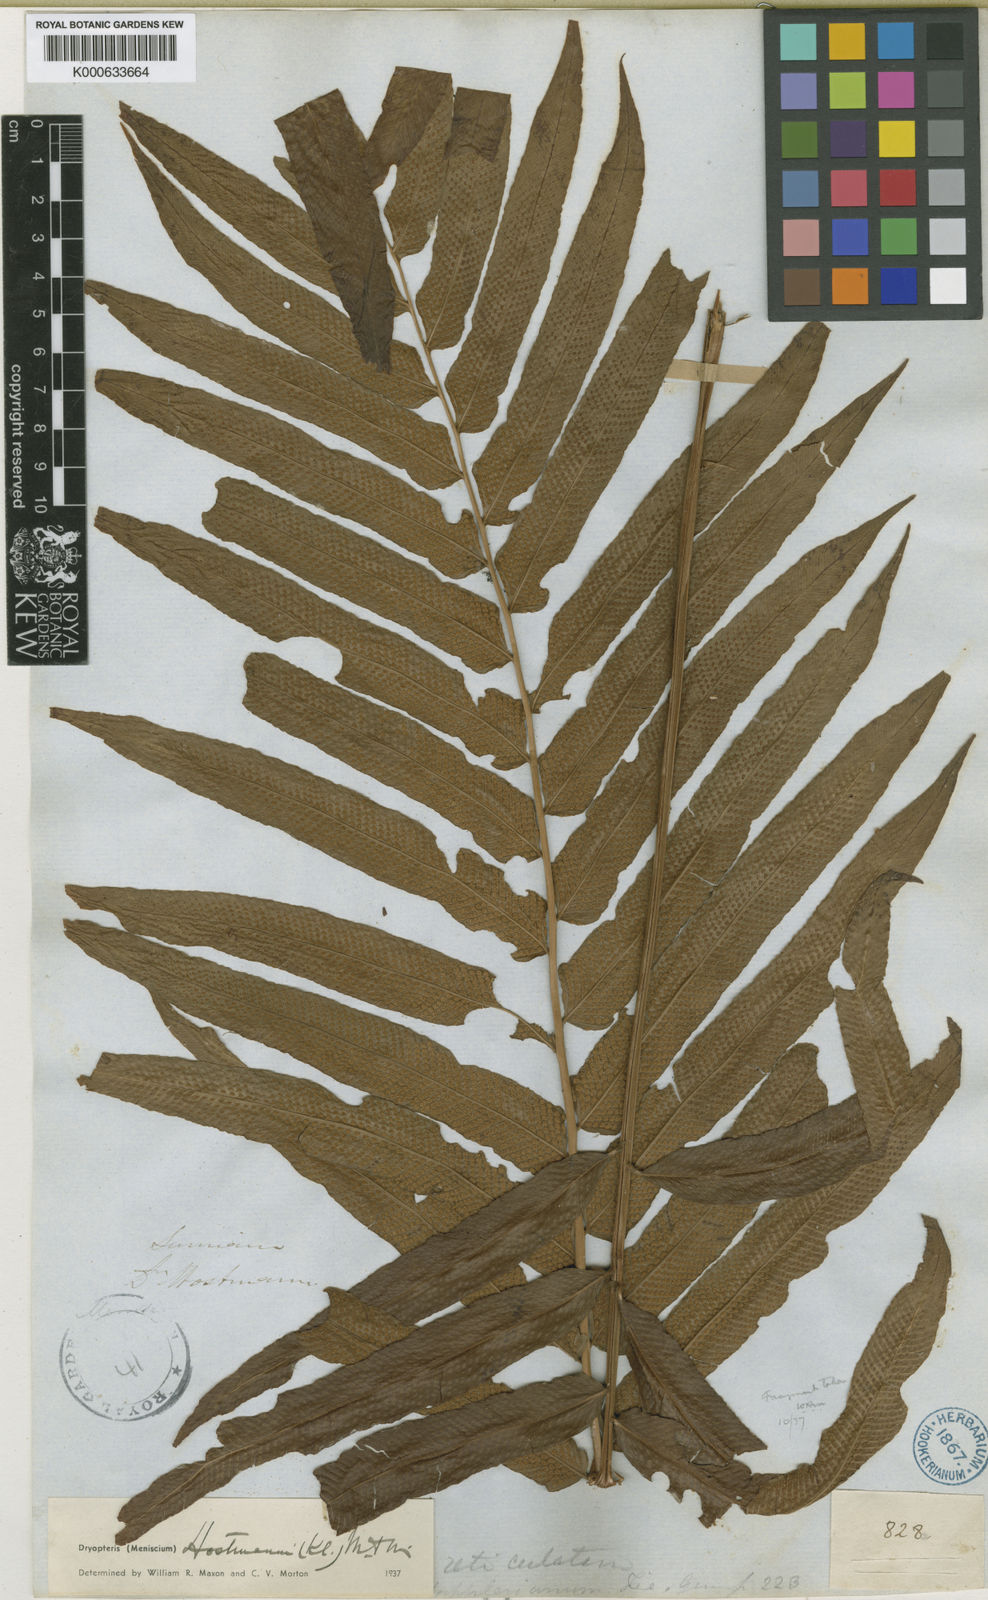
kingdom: Plantae
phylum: Tracheophyta
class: Polypodiopsida
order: Polypodiales
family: Thelypteridaceae
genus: Meniscium
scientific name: Meniscium hostmannii
